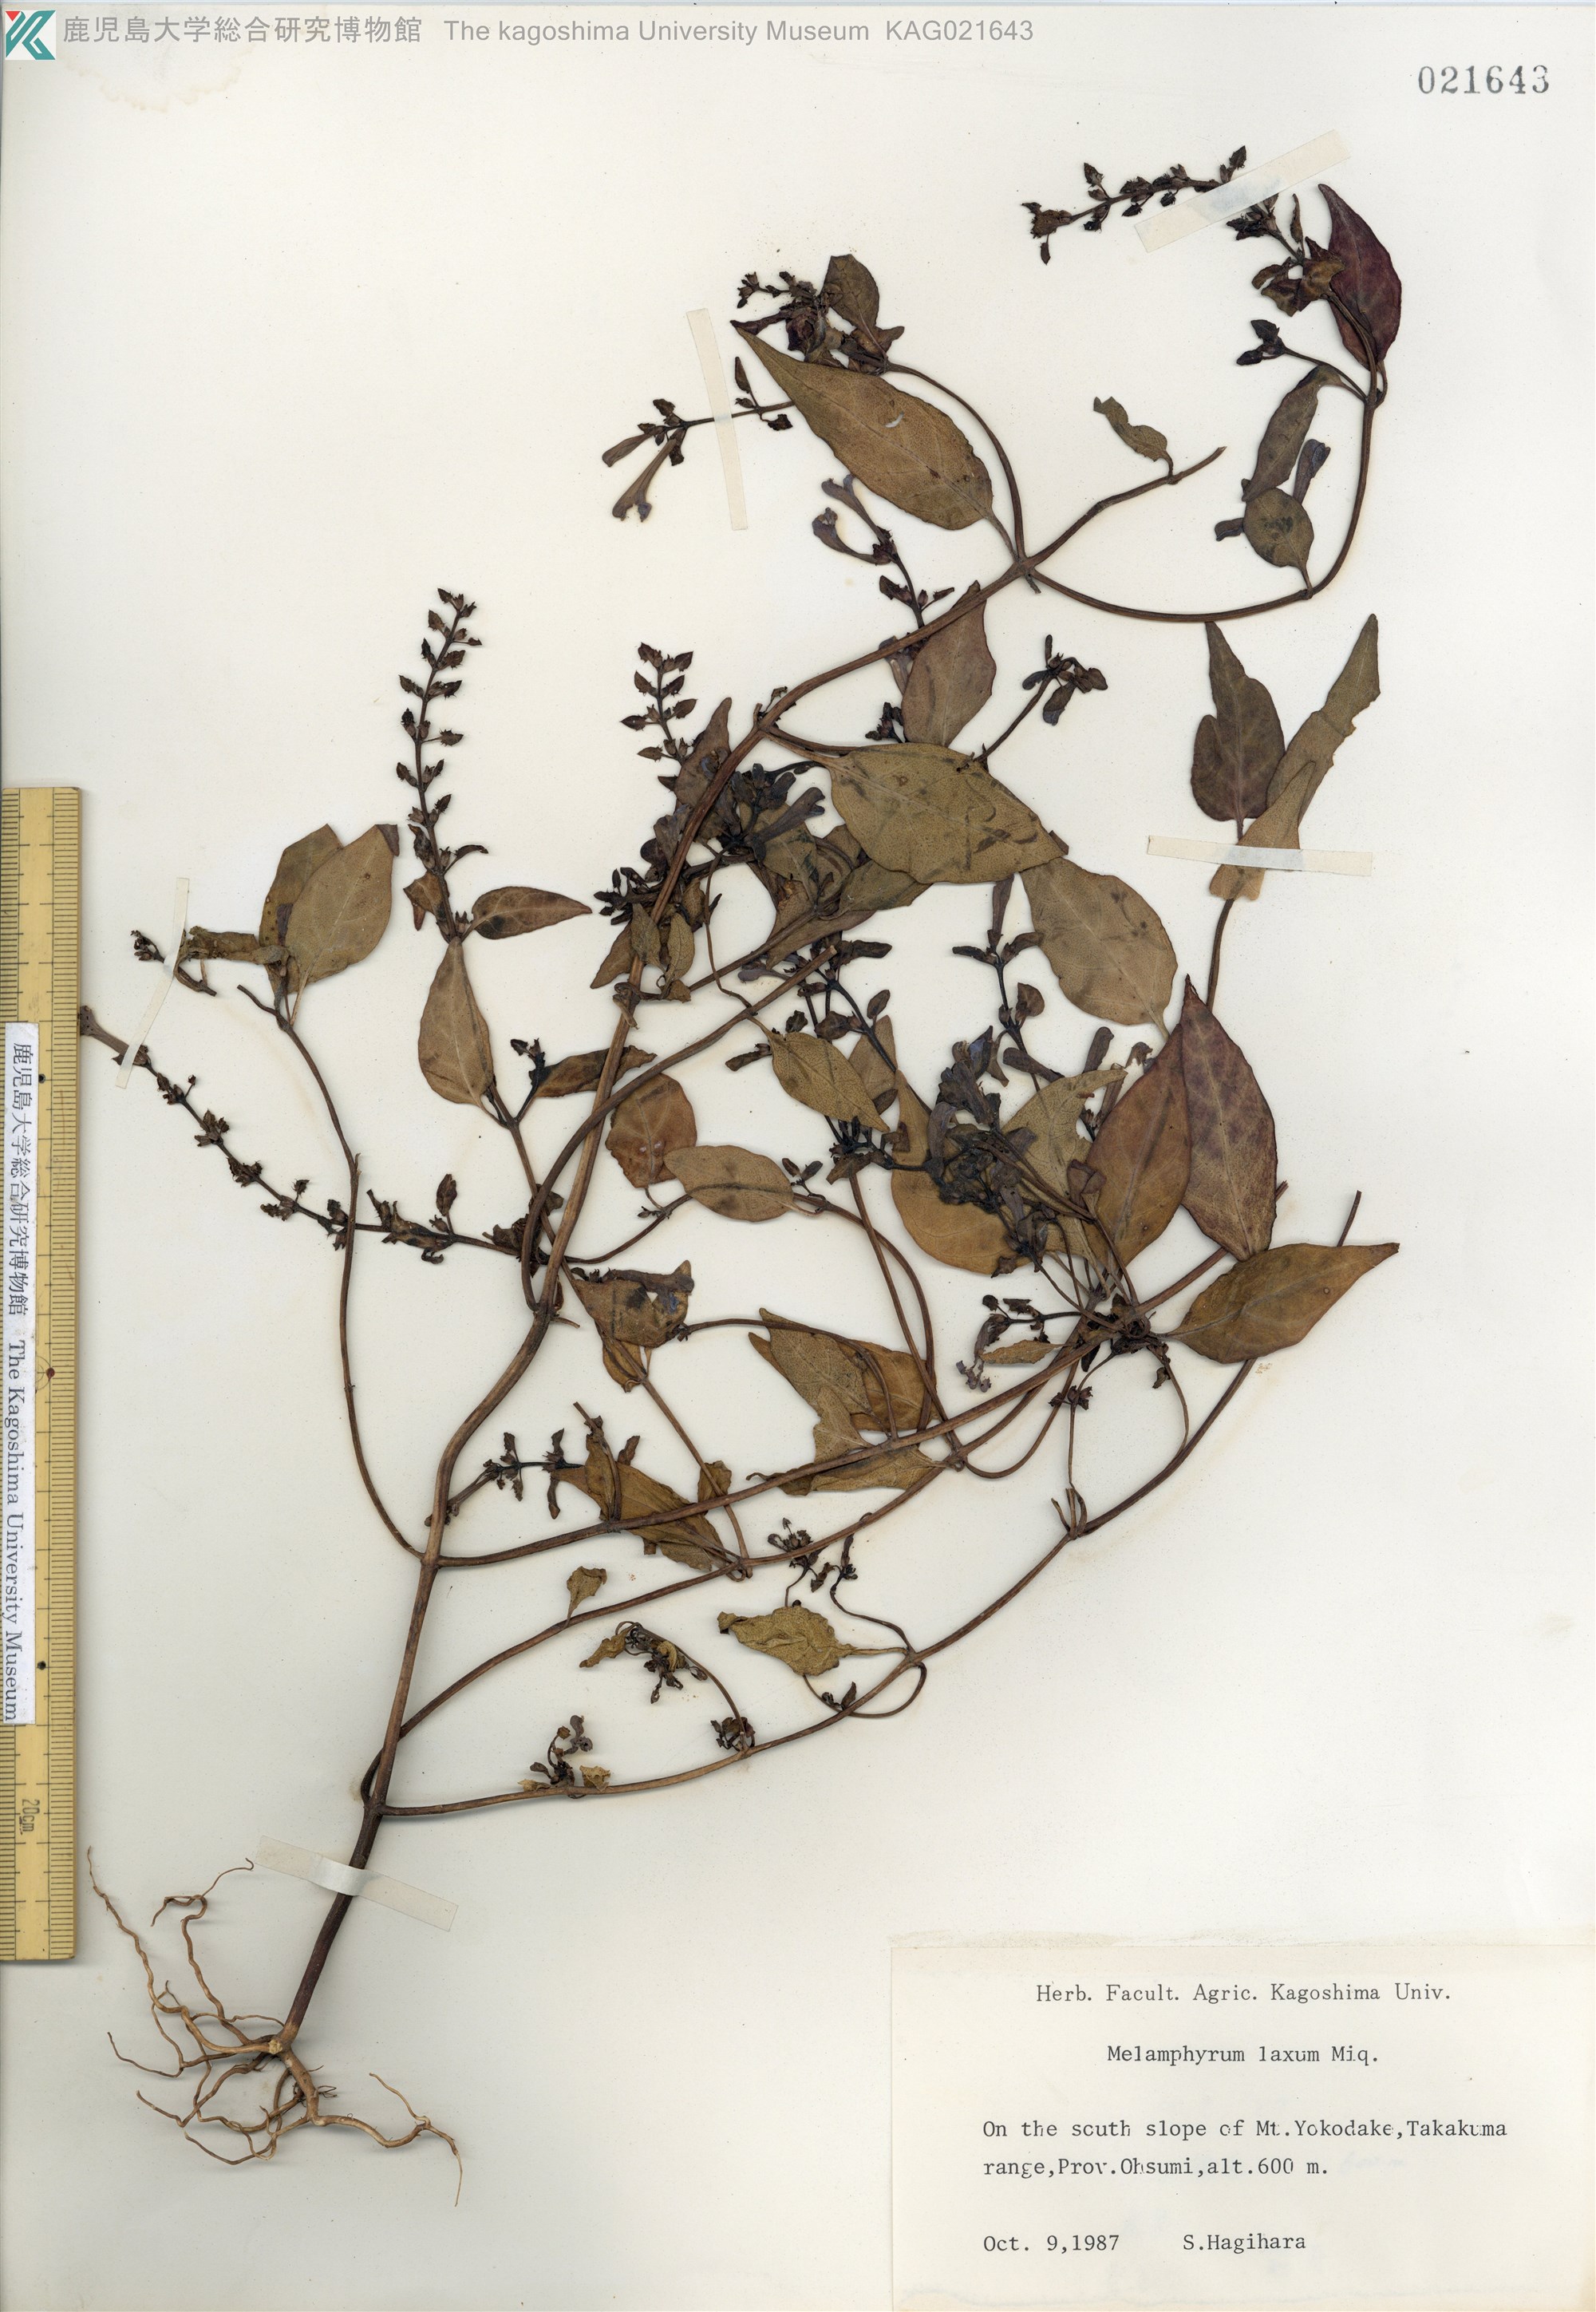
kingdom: Plantae
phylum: Tracheophyta
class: Magnoliopsida
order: Lamiales
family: Orobanchaceae
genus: Melampyrum
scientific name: Melampyrum laxum
